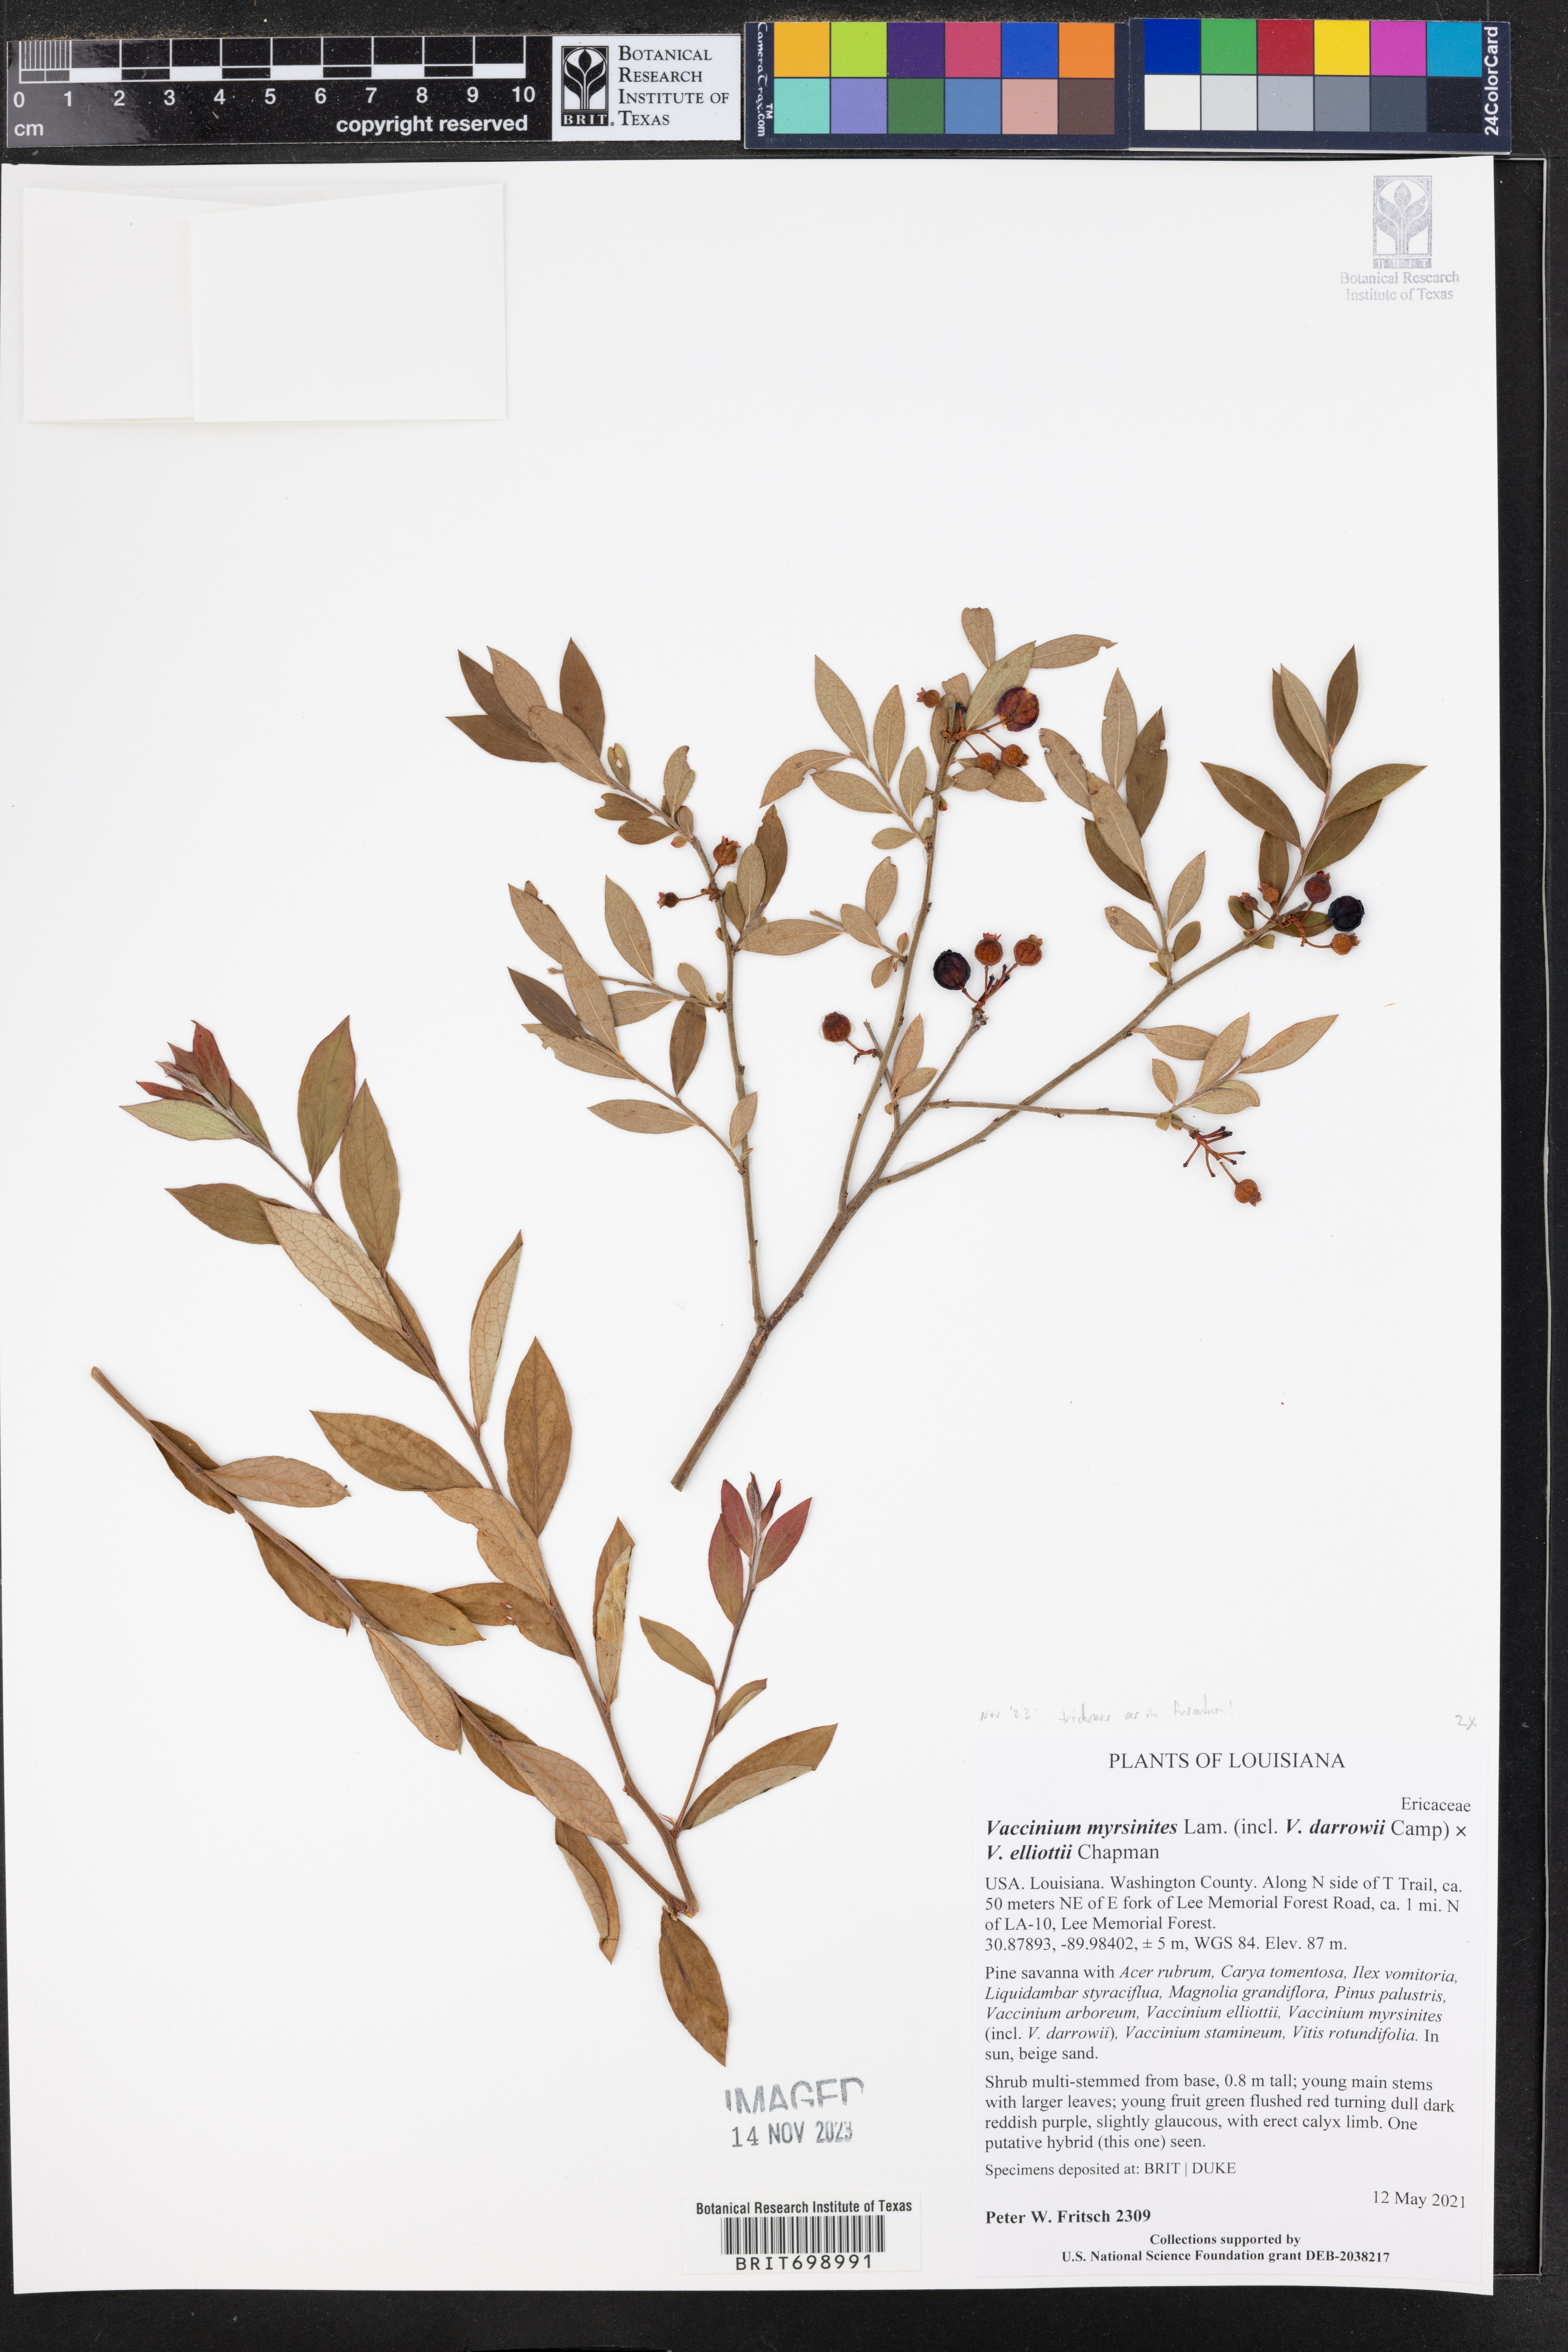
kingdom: Plantae
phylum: Tracheophyta
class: Magnoliopsida
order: Ericales
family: Ericaceae
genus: Vaccinium
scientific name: Vaccinium myrsinites
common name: Evergreen blueberry
